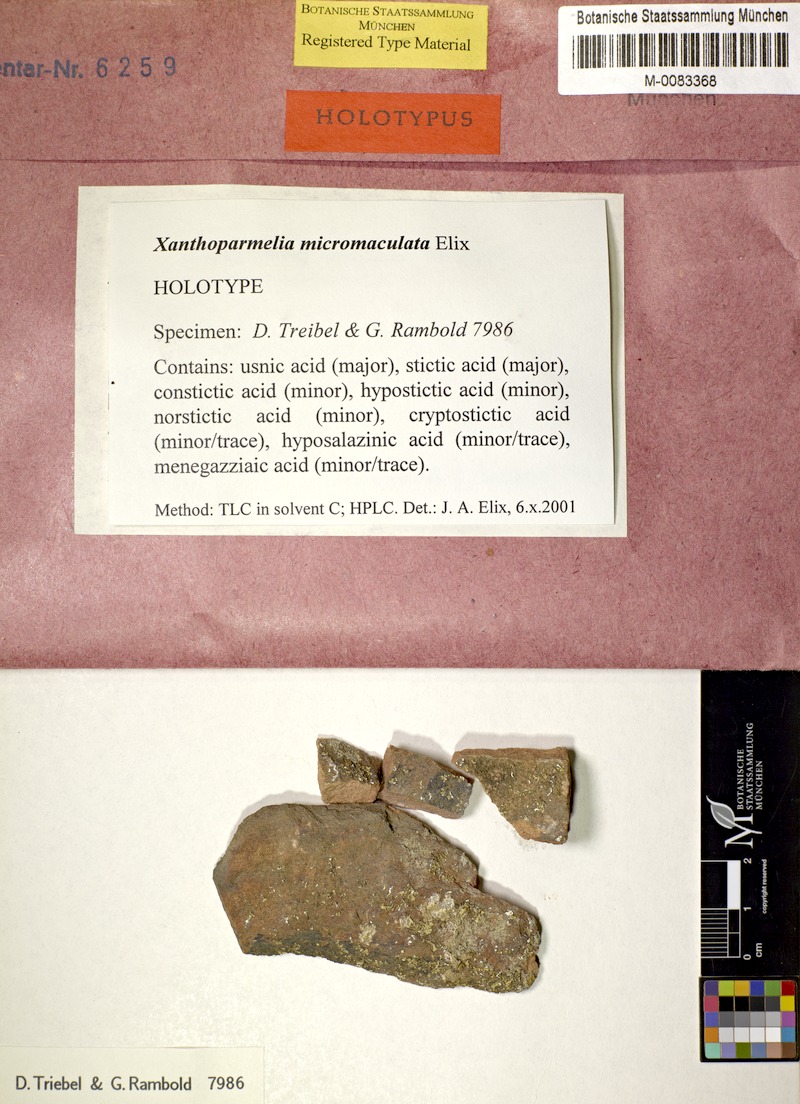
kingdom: Fungi
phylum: Ascomycota
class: Lecanoromycetes
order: Lecanorales
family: Parmeliaceae
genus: Xanthoparmelia
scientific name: Xanthoparmelia micromaculata
